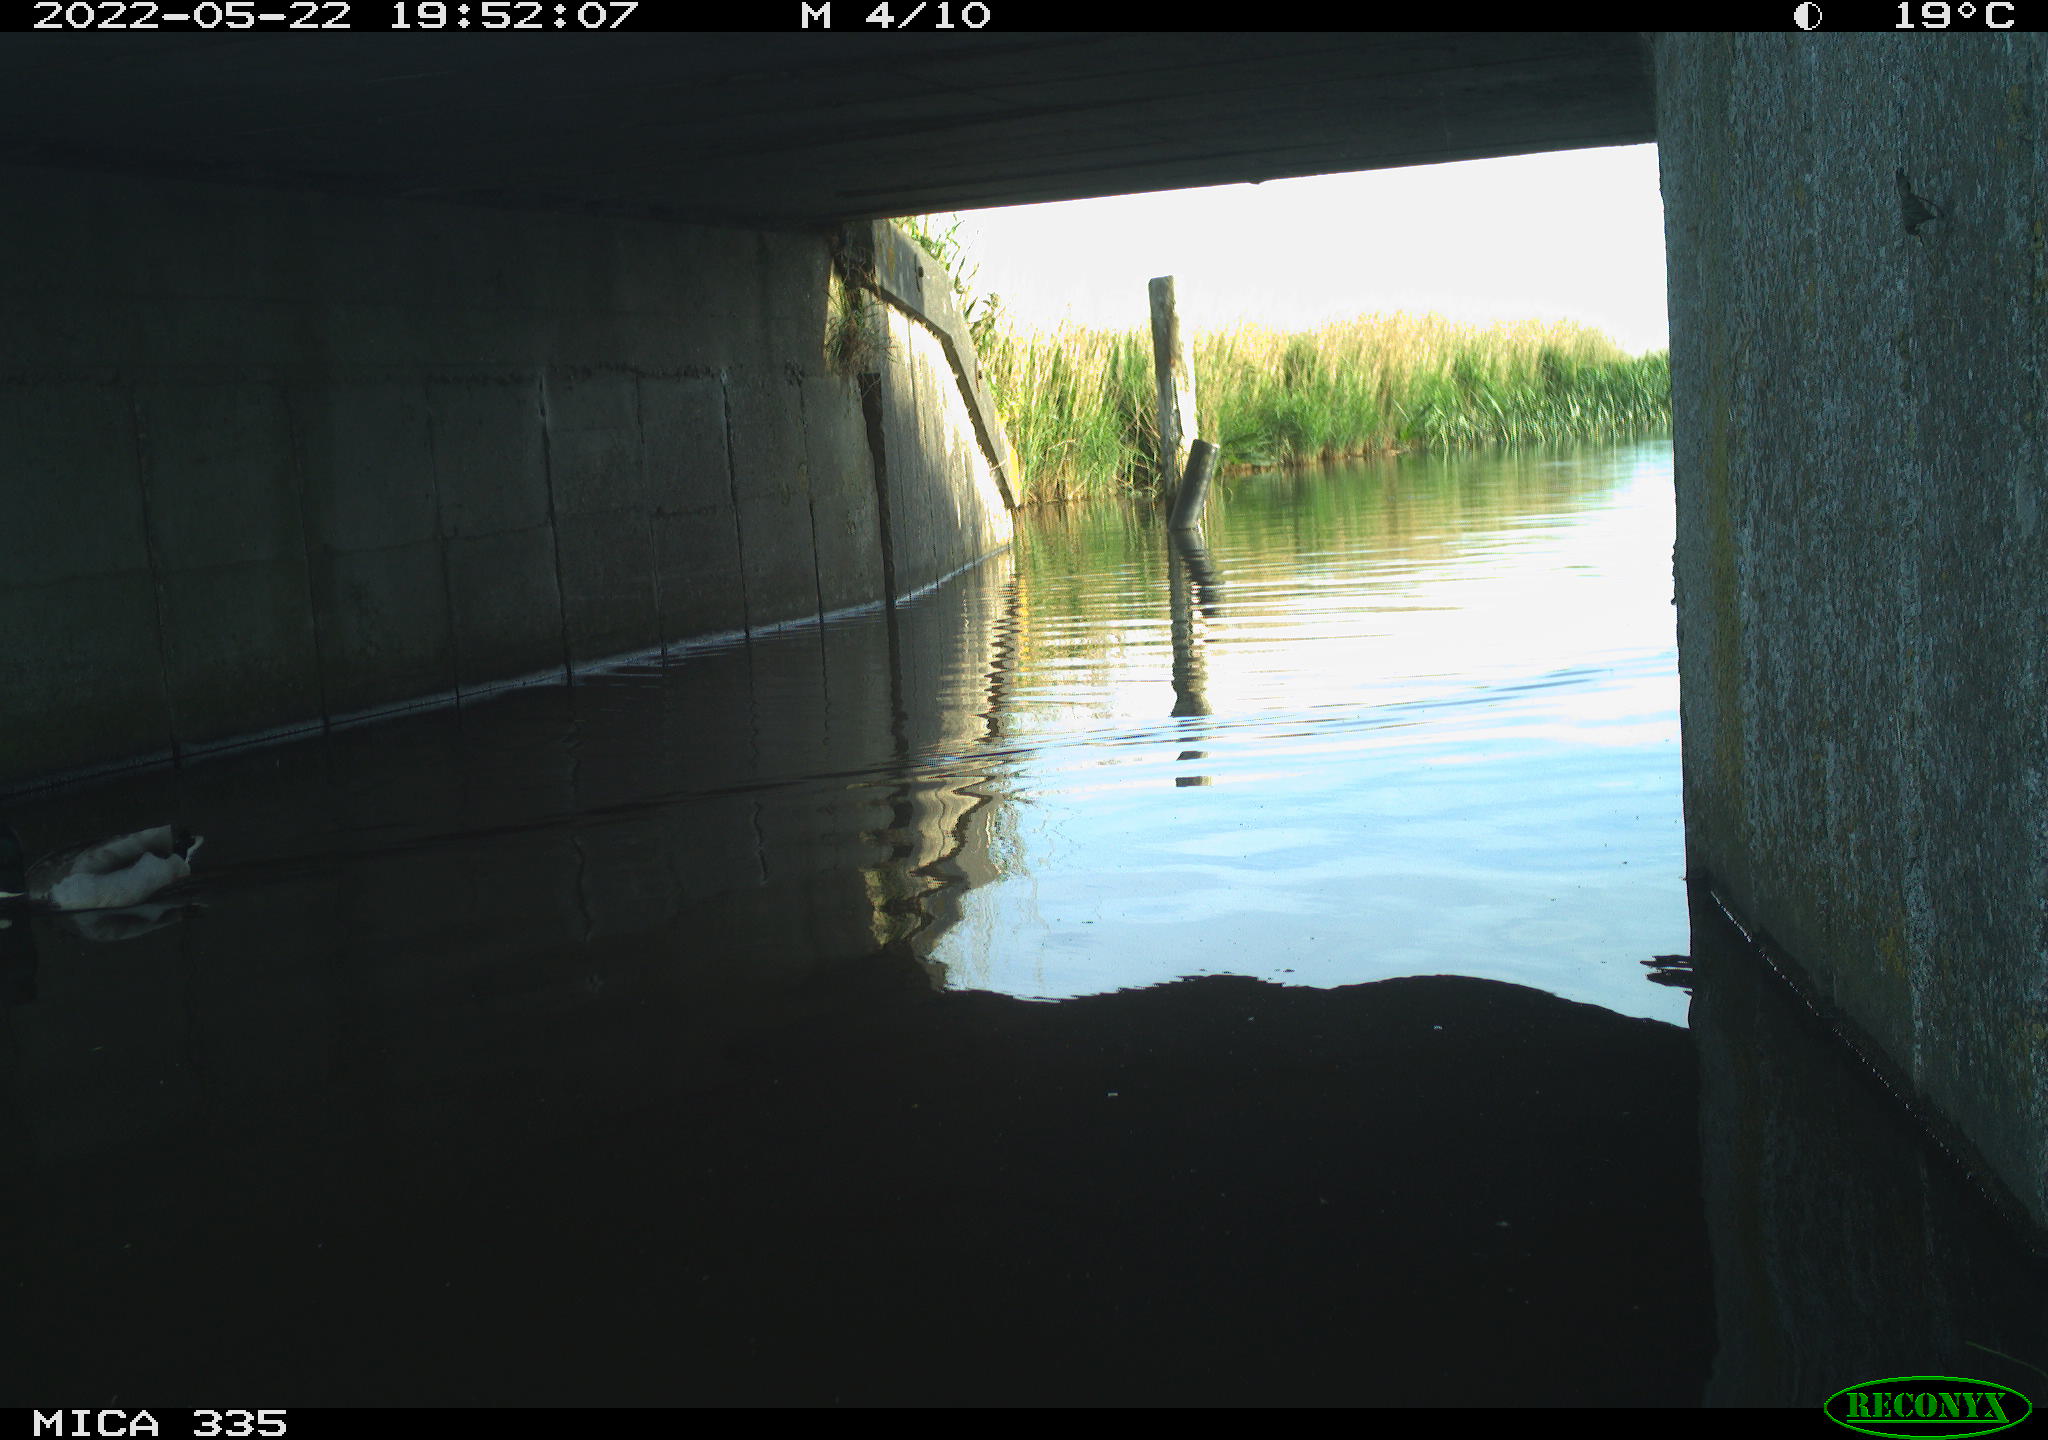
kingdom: Animalia
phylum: Chordata
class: Aves
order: Anseriformes
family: Anatidae
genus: Anas
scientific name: Anas platyrhynchos
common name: Mallard
